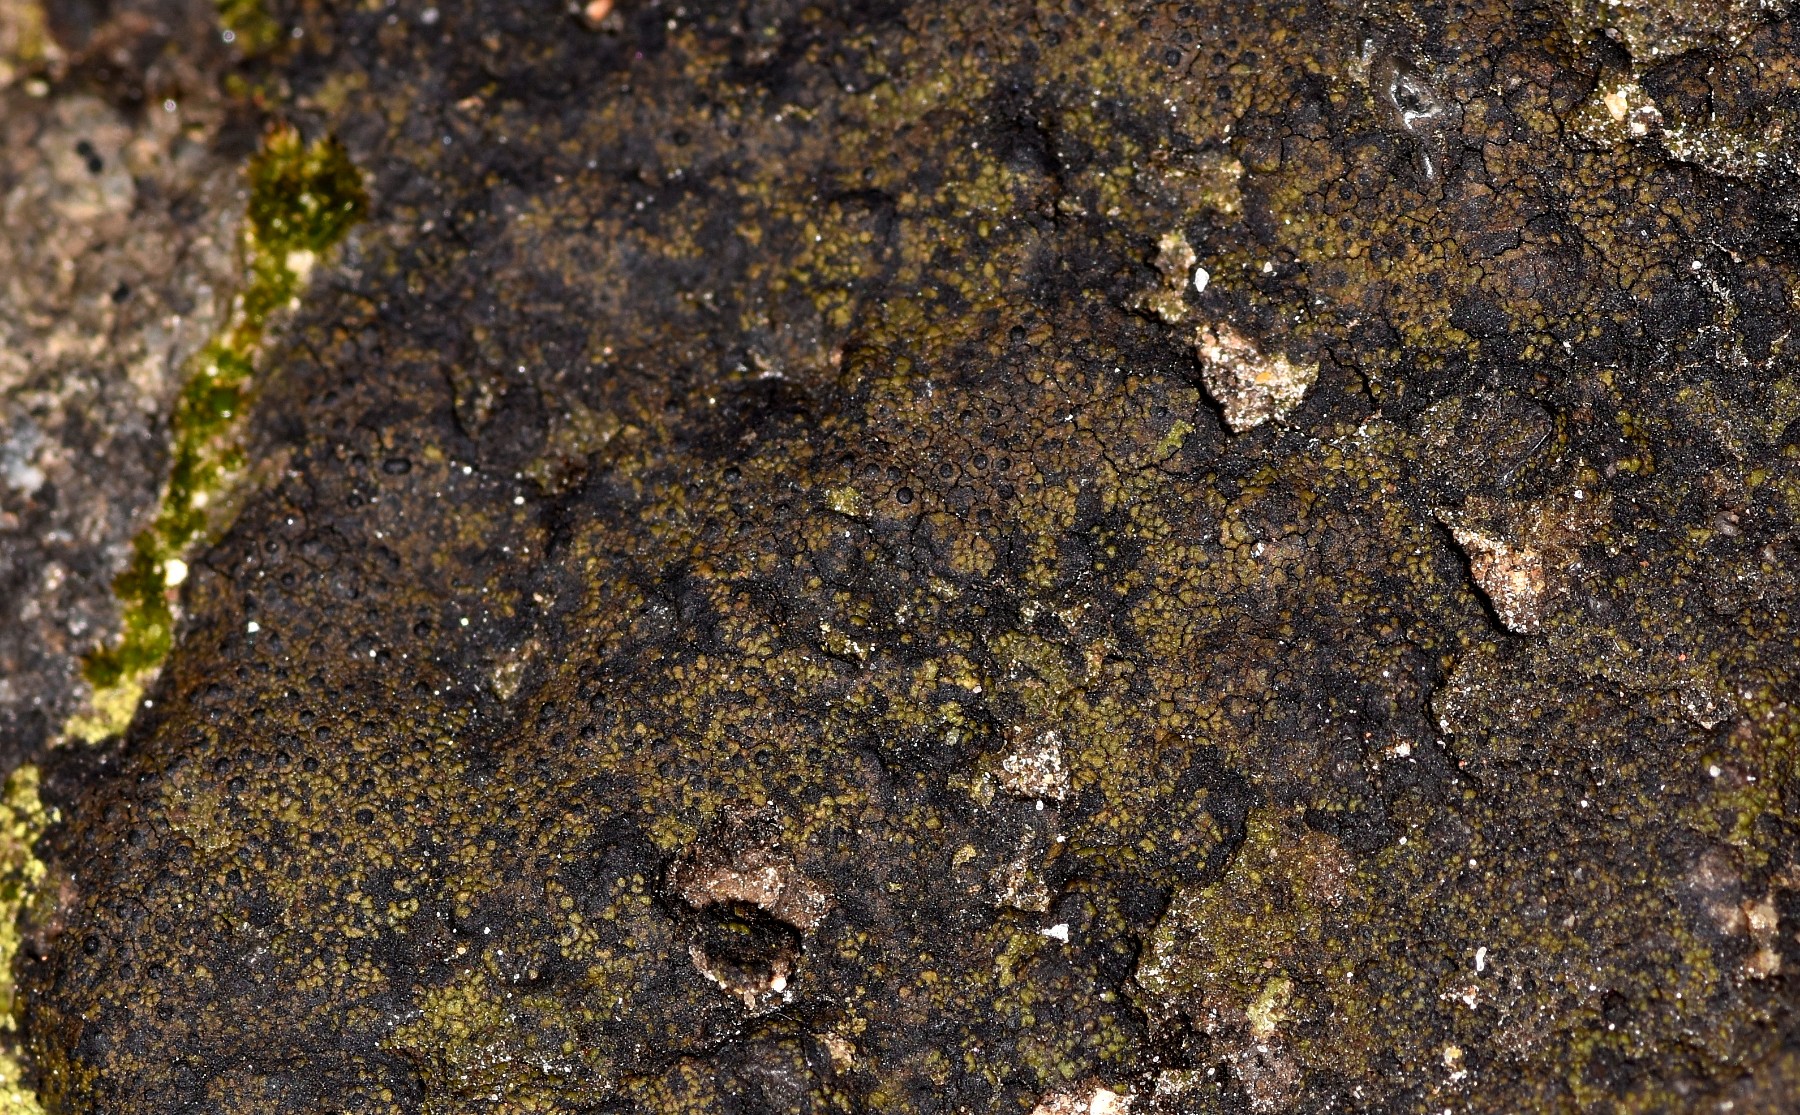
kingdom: Fungi
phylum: Ascomycota
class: Eurotiomycetes
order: Verrucariales
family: Verrucariaceae
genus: Verrucaria
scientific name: Verrucaria nigrescens
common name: sortbrun vortelav
